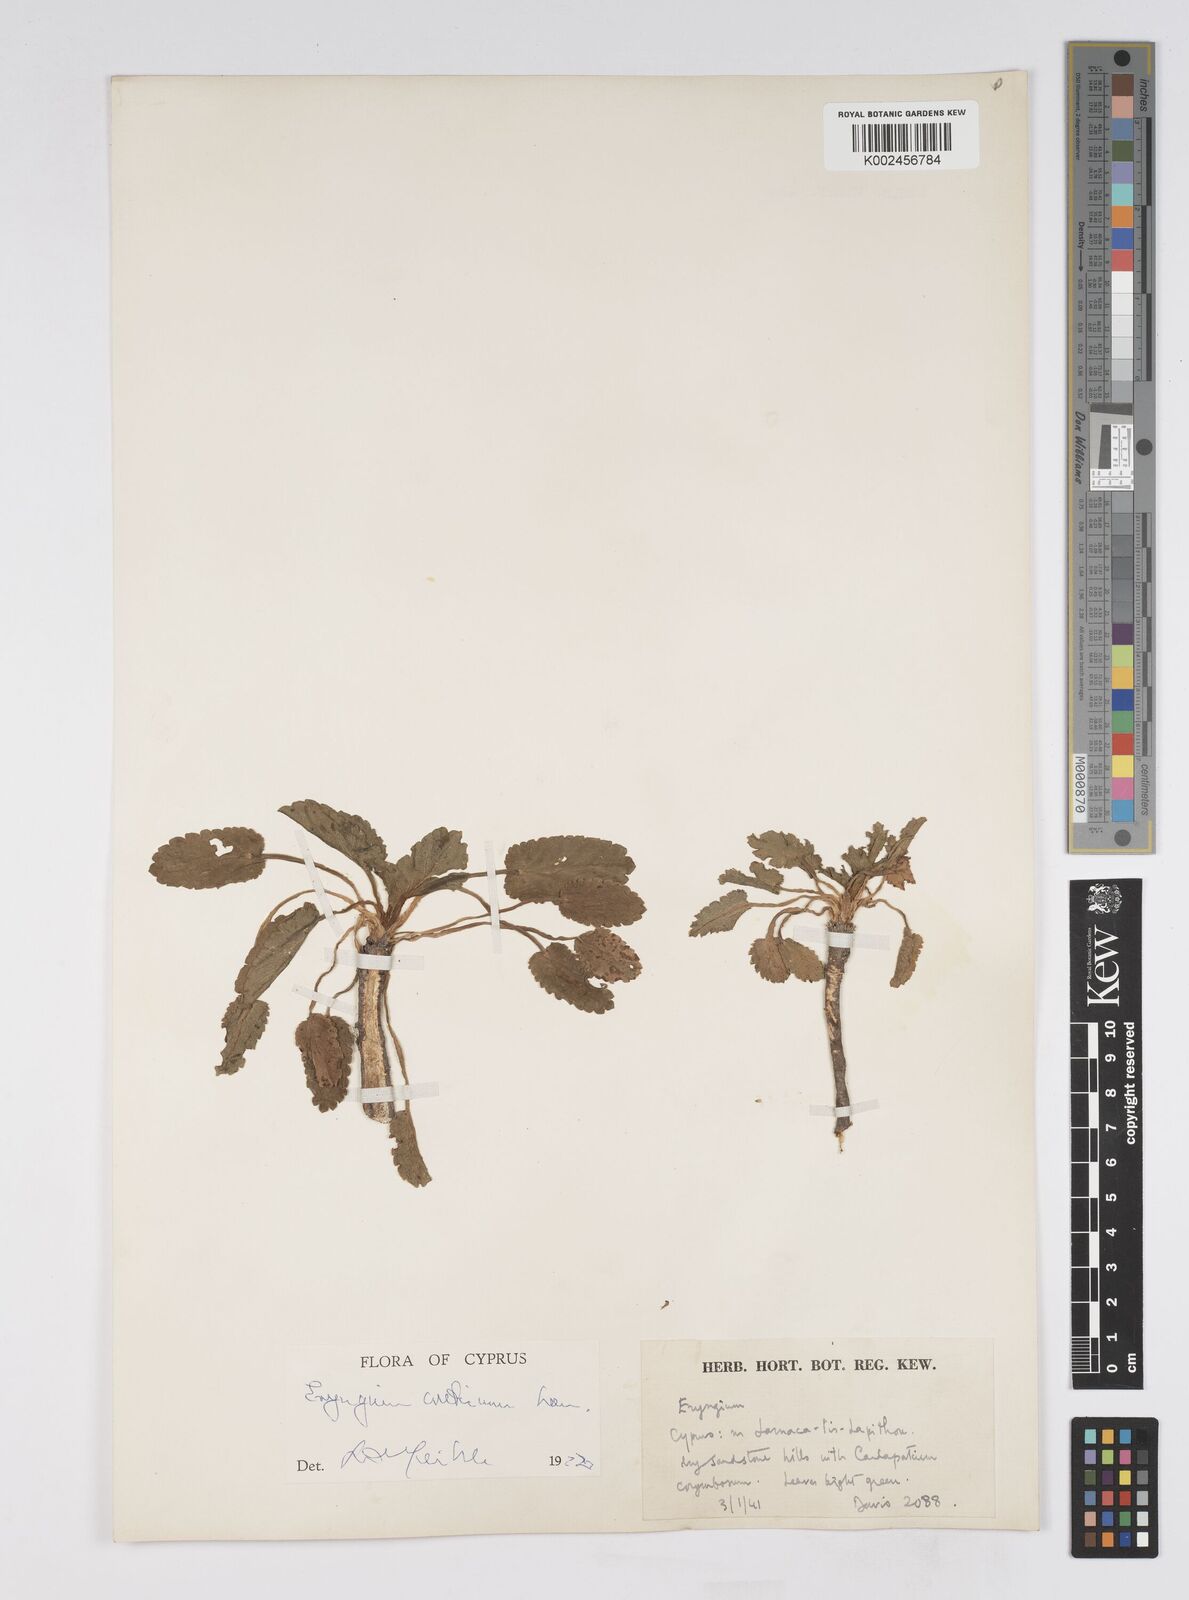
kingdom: Plantae
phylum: Tracheophyta
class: Magnoliopsida
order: Apiales
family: Apiaceae
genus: Eryngium
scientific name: Eryngium creticum
